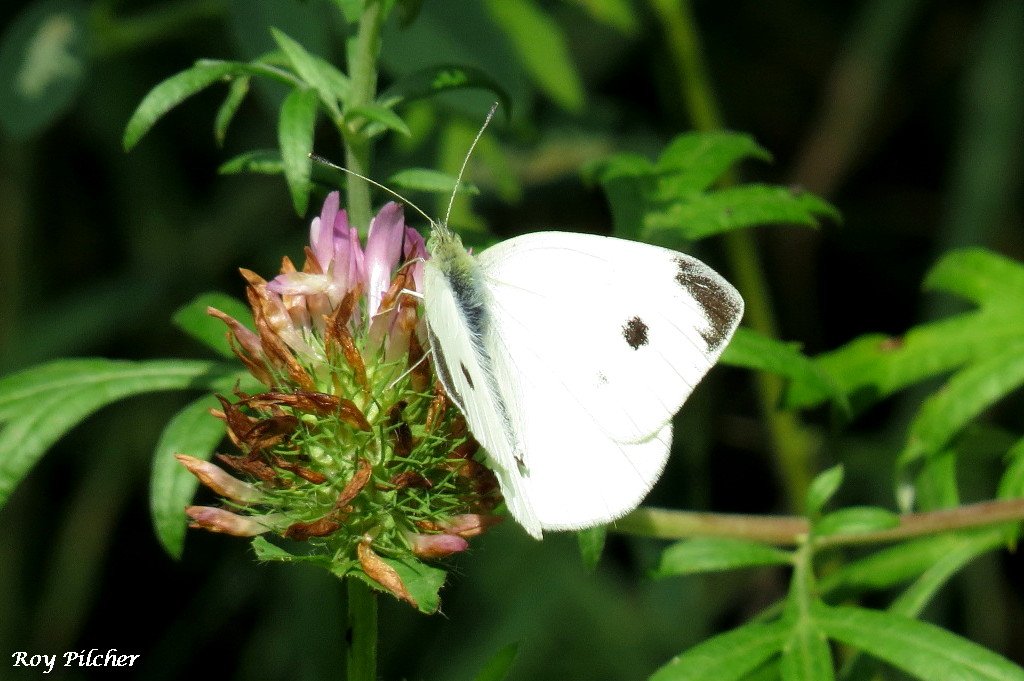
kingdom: Animalia
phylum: Arthropoda
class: Insecta
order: Lepidoptera
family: Pieridae
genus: Pieris
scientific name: Pieris rapae
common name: Cabbage White
